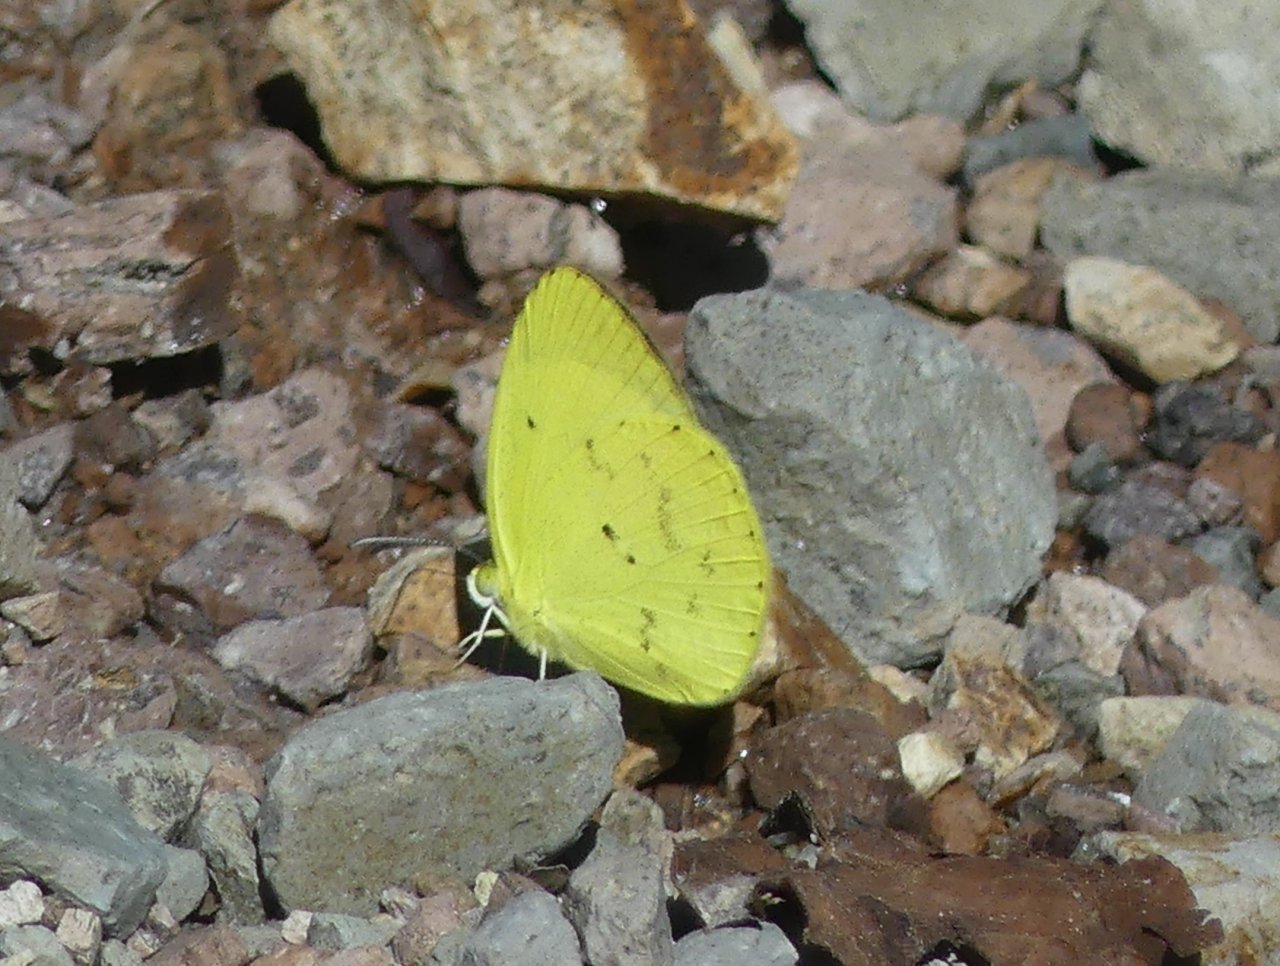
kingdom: Animalia
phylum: Arthropoda
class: Insecta
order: Lepidoptera
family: Pieridae
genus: Pyrisitia
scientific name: Pyrisitia nise
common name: Mimosa Yellow
